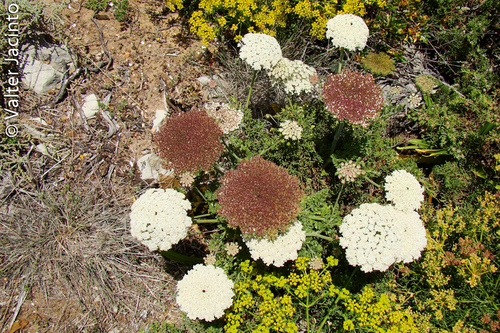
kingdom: Plantae
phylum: Tracheophyta
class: Magnoliopsida
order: Apiales
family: Apiaceae
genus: Daucus
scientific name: Daucus carota
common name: Wild carrot
